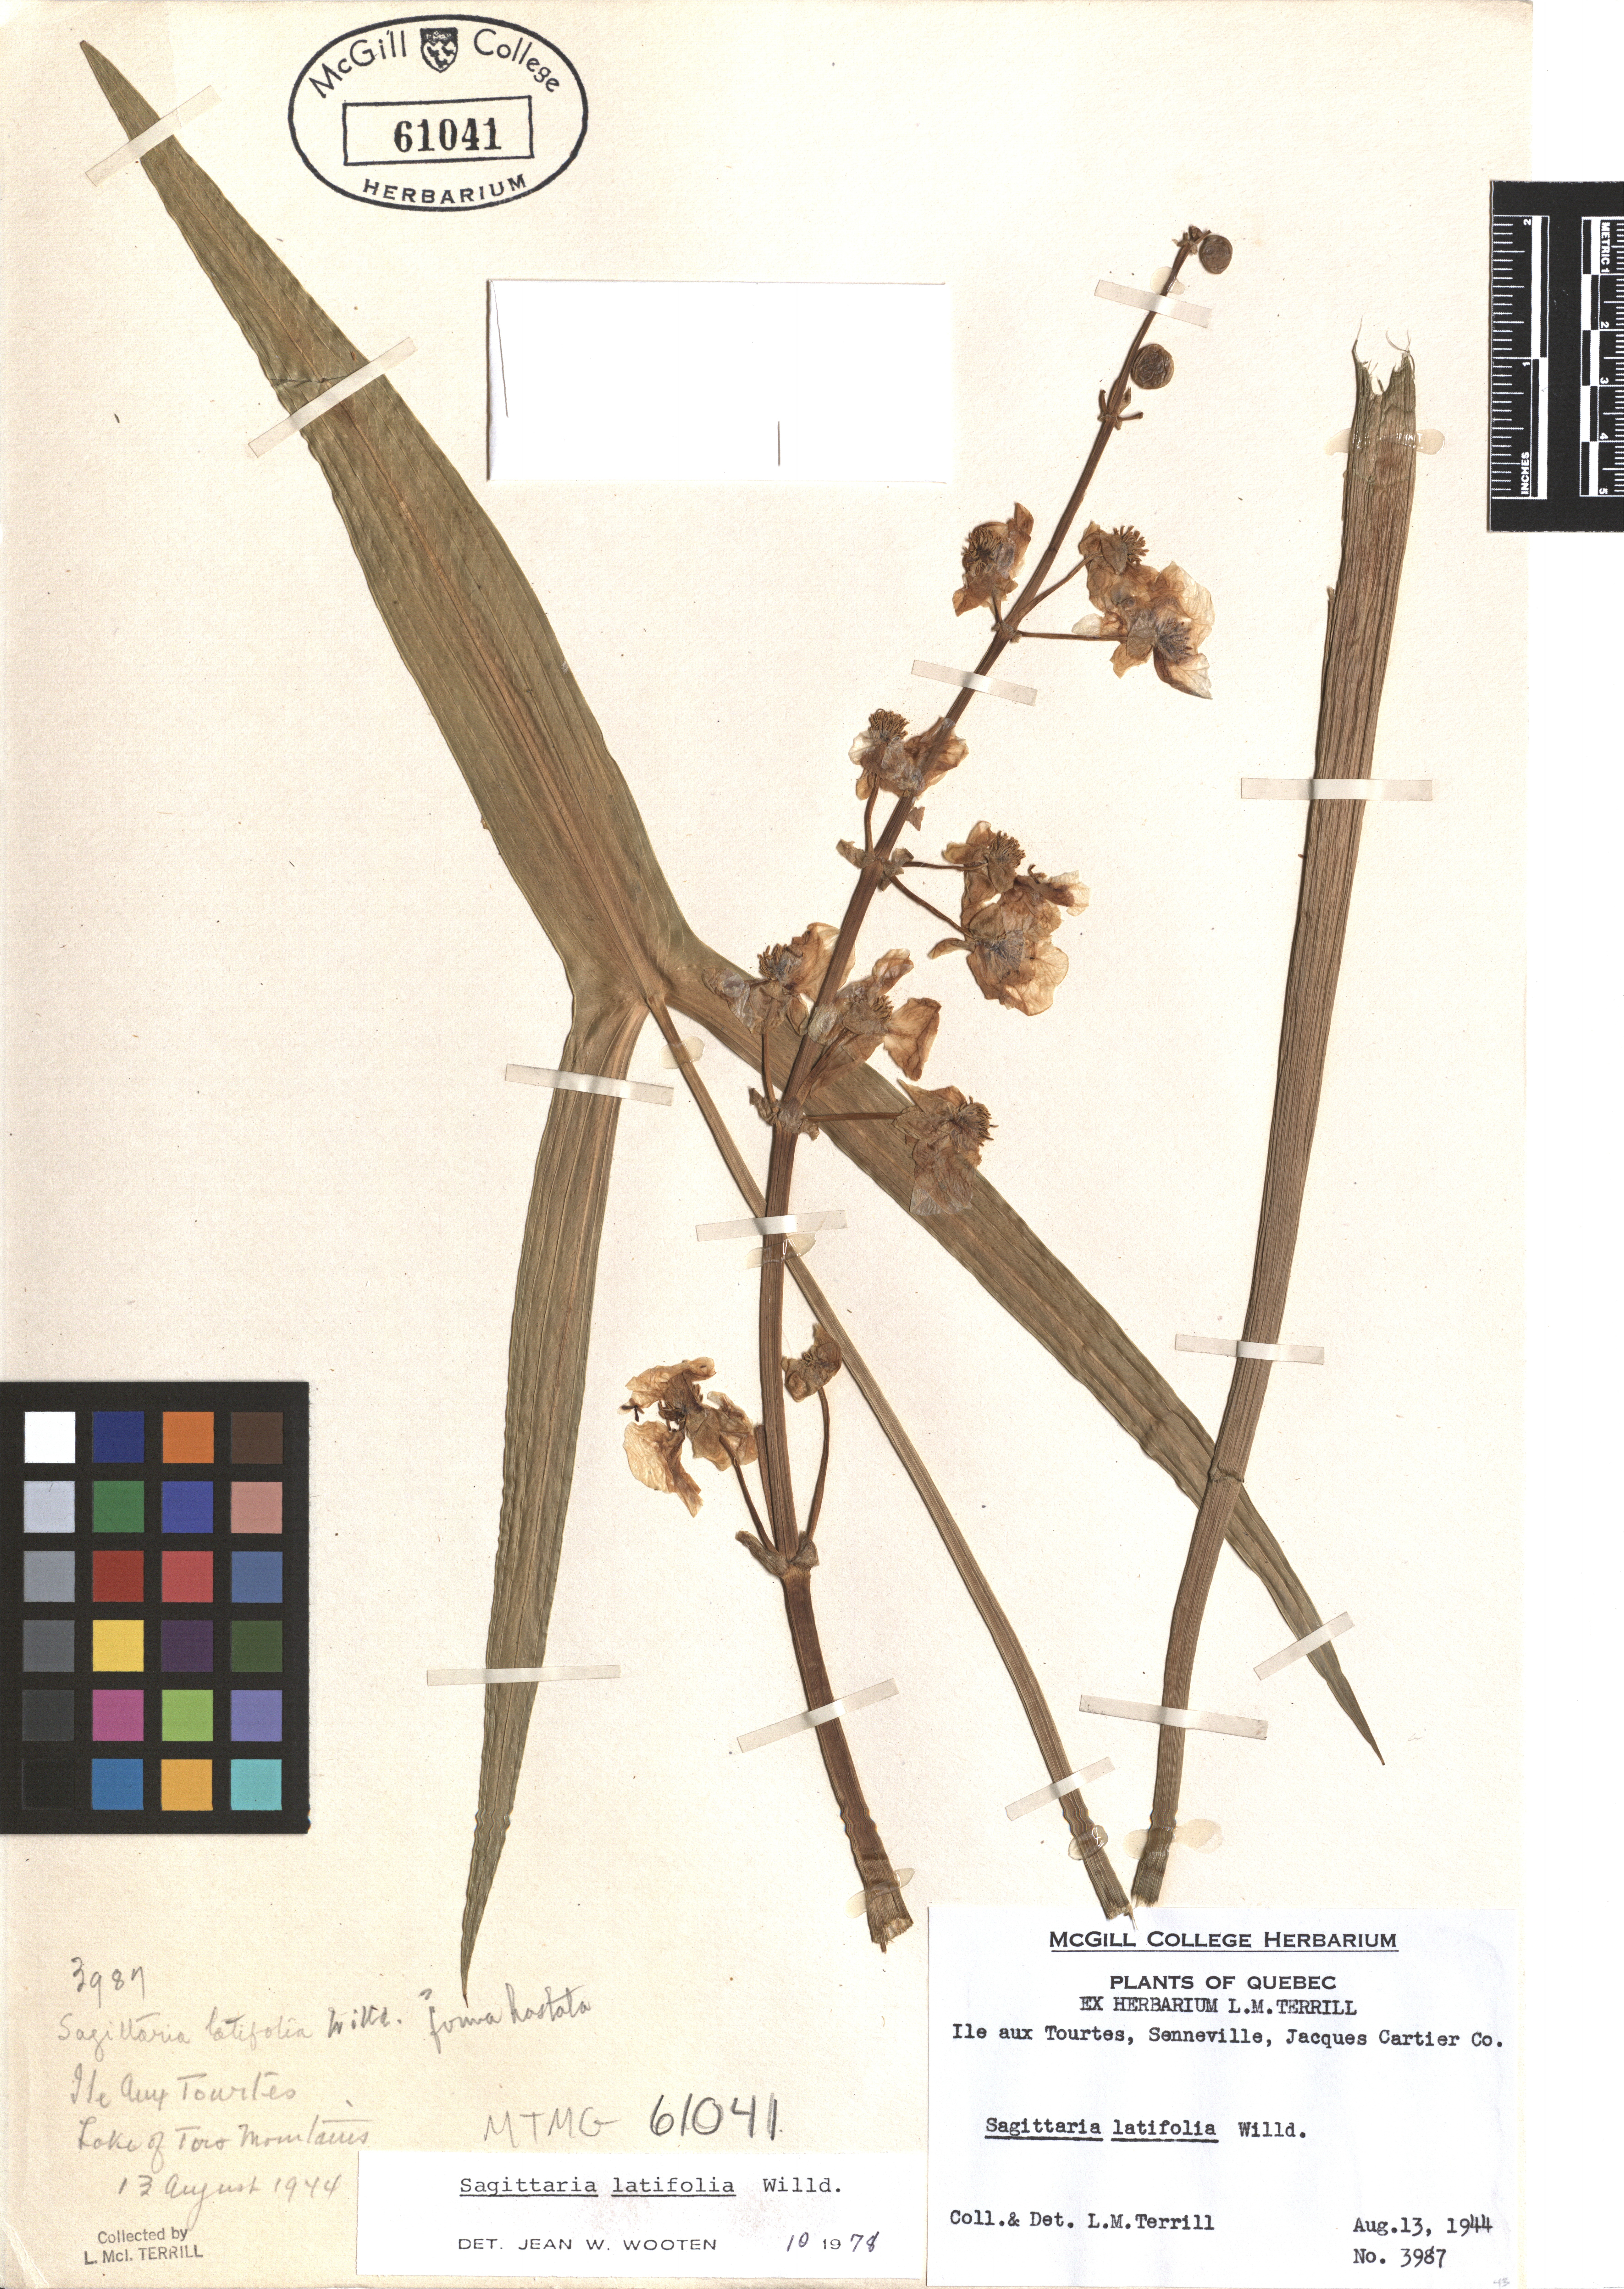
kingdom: Plantae
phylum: Tracheophyta
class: Liliopsida
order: Alismatales
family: Alismataceae
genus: Sagittaria
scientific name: Sagittaria latifolia
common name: Duck-potato
